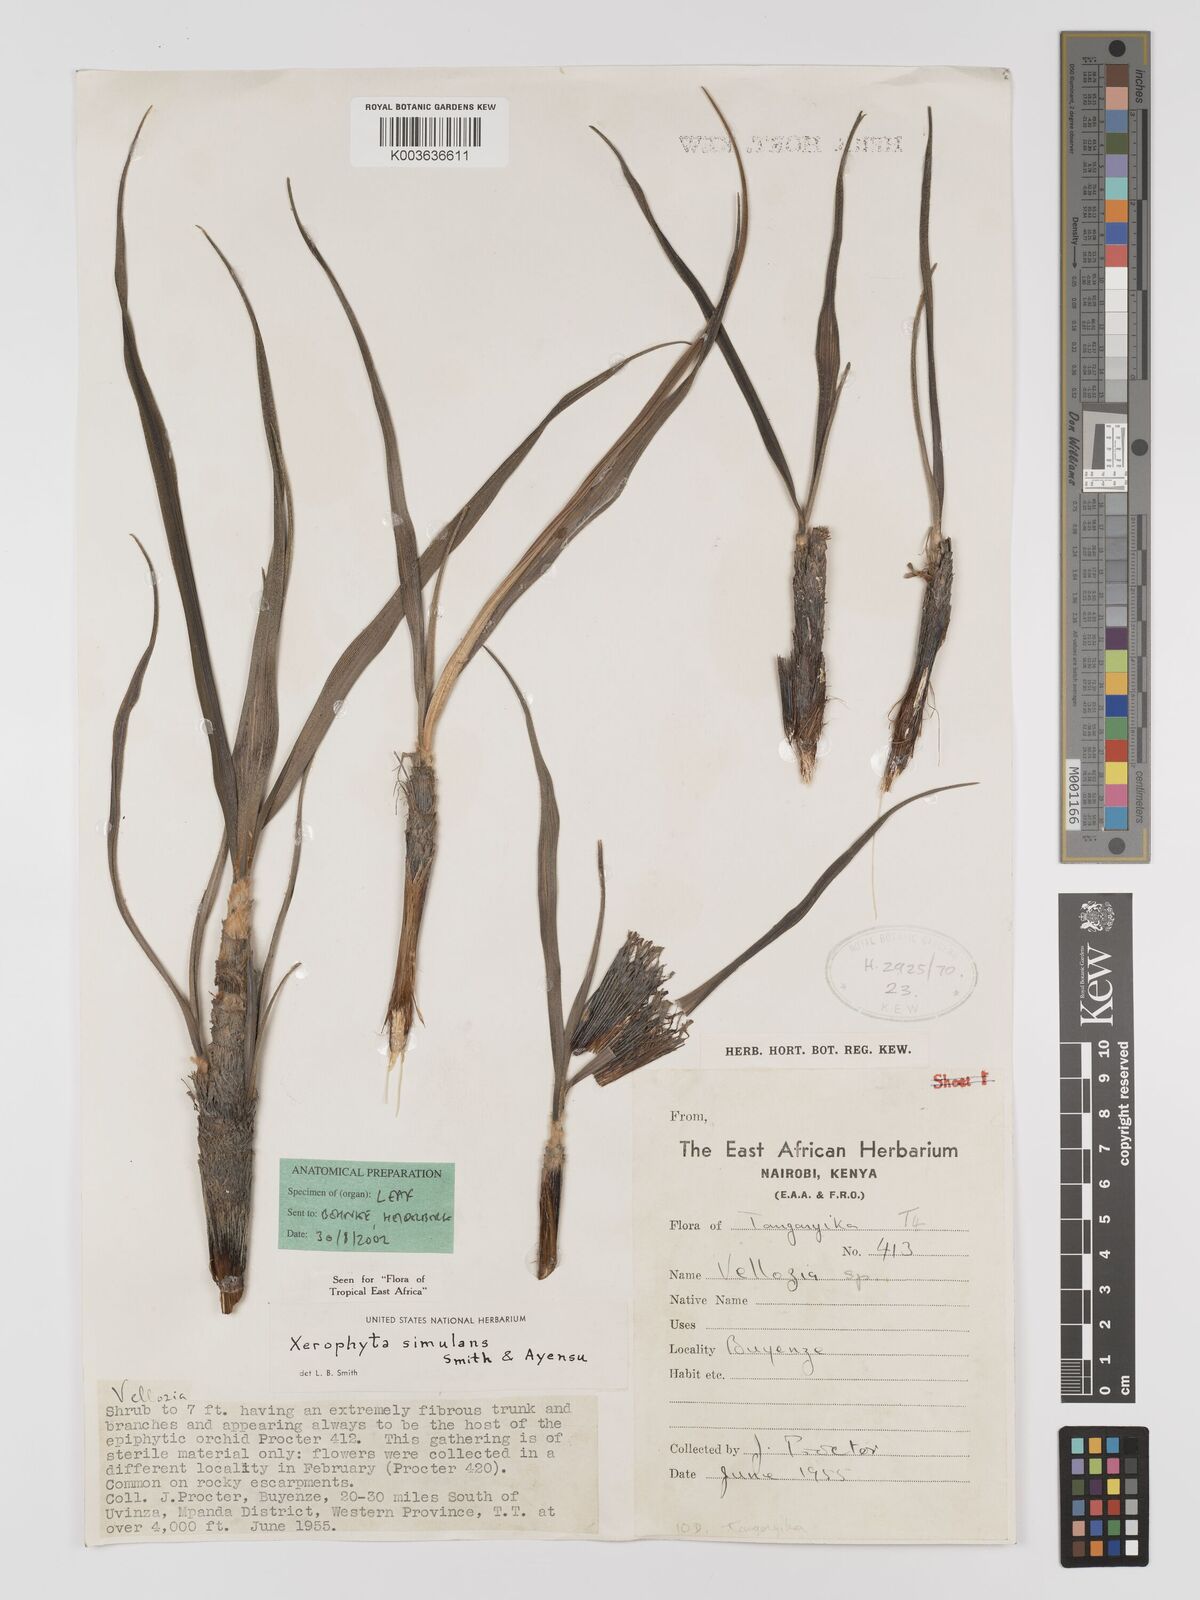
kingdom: Plantae
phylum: Tracheophyta
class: Liliopsida
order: Pandanales
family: Velloziaceae
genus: Xerophyta
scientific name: Xerophyta simulans
